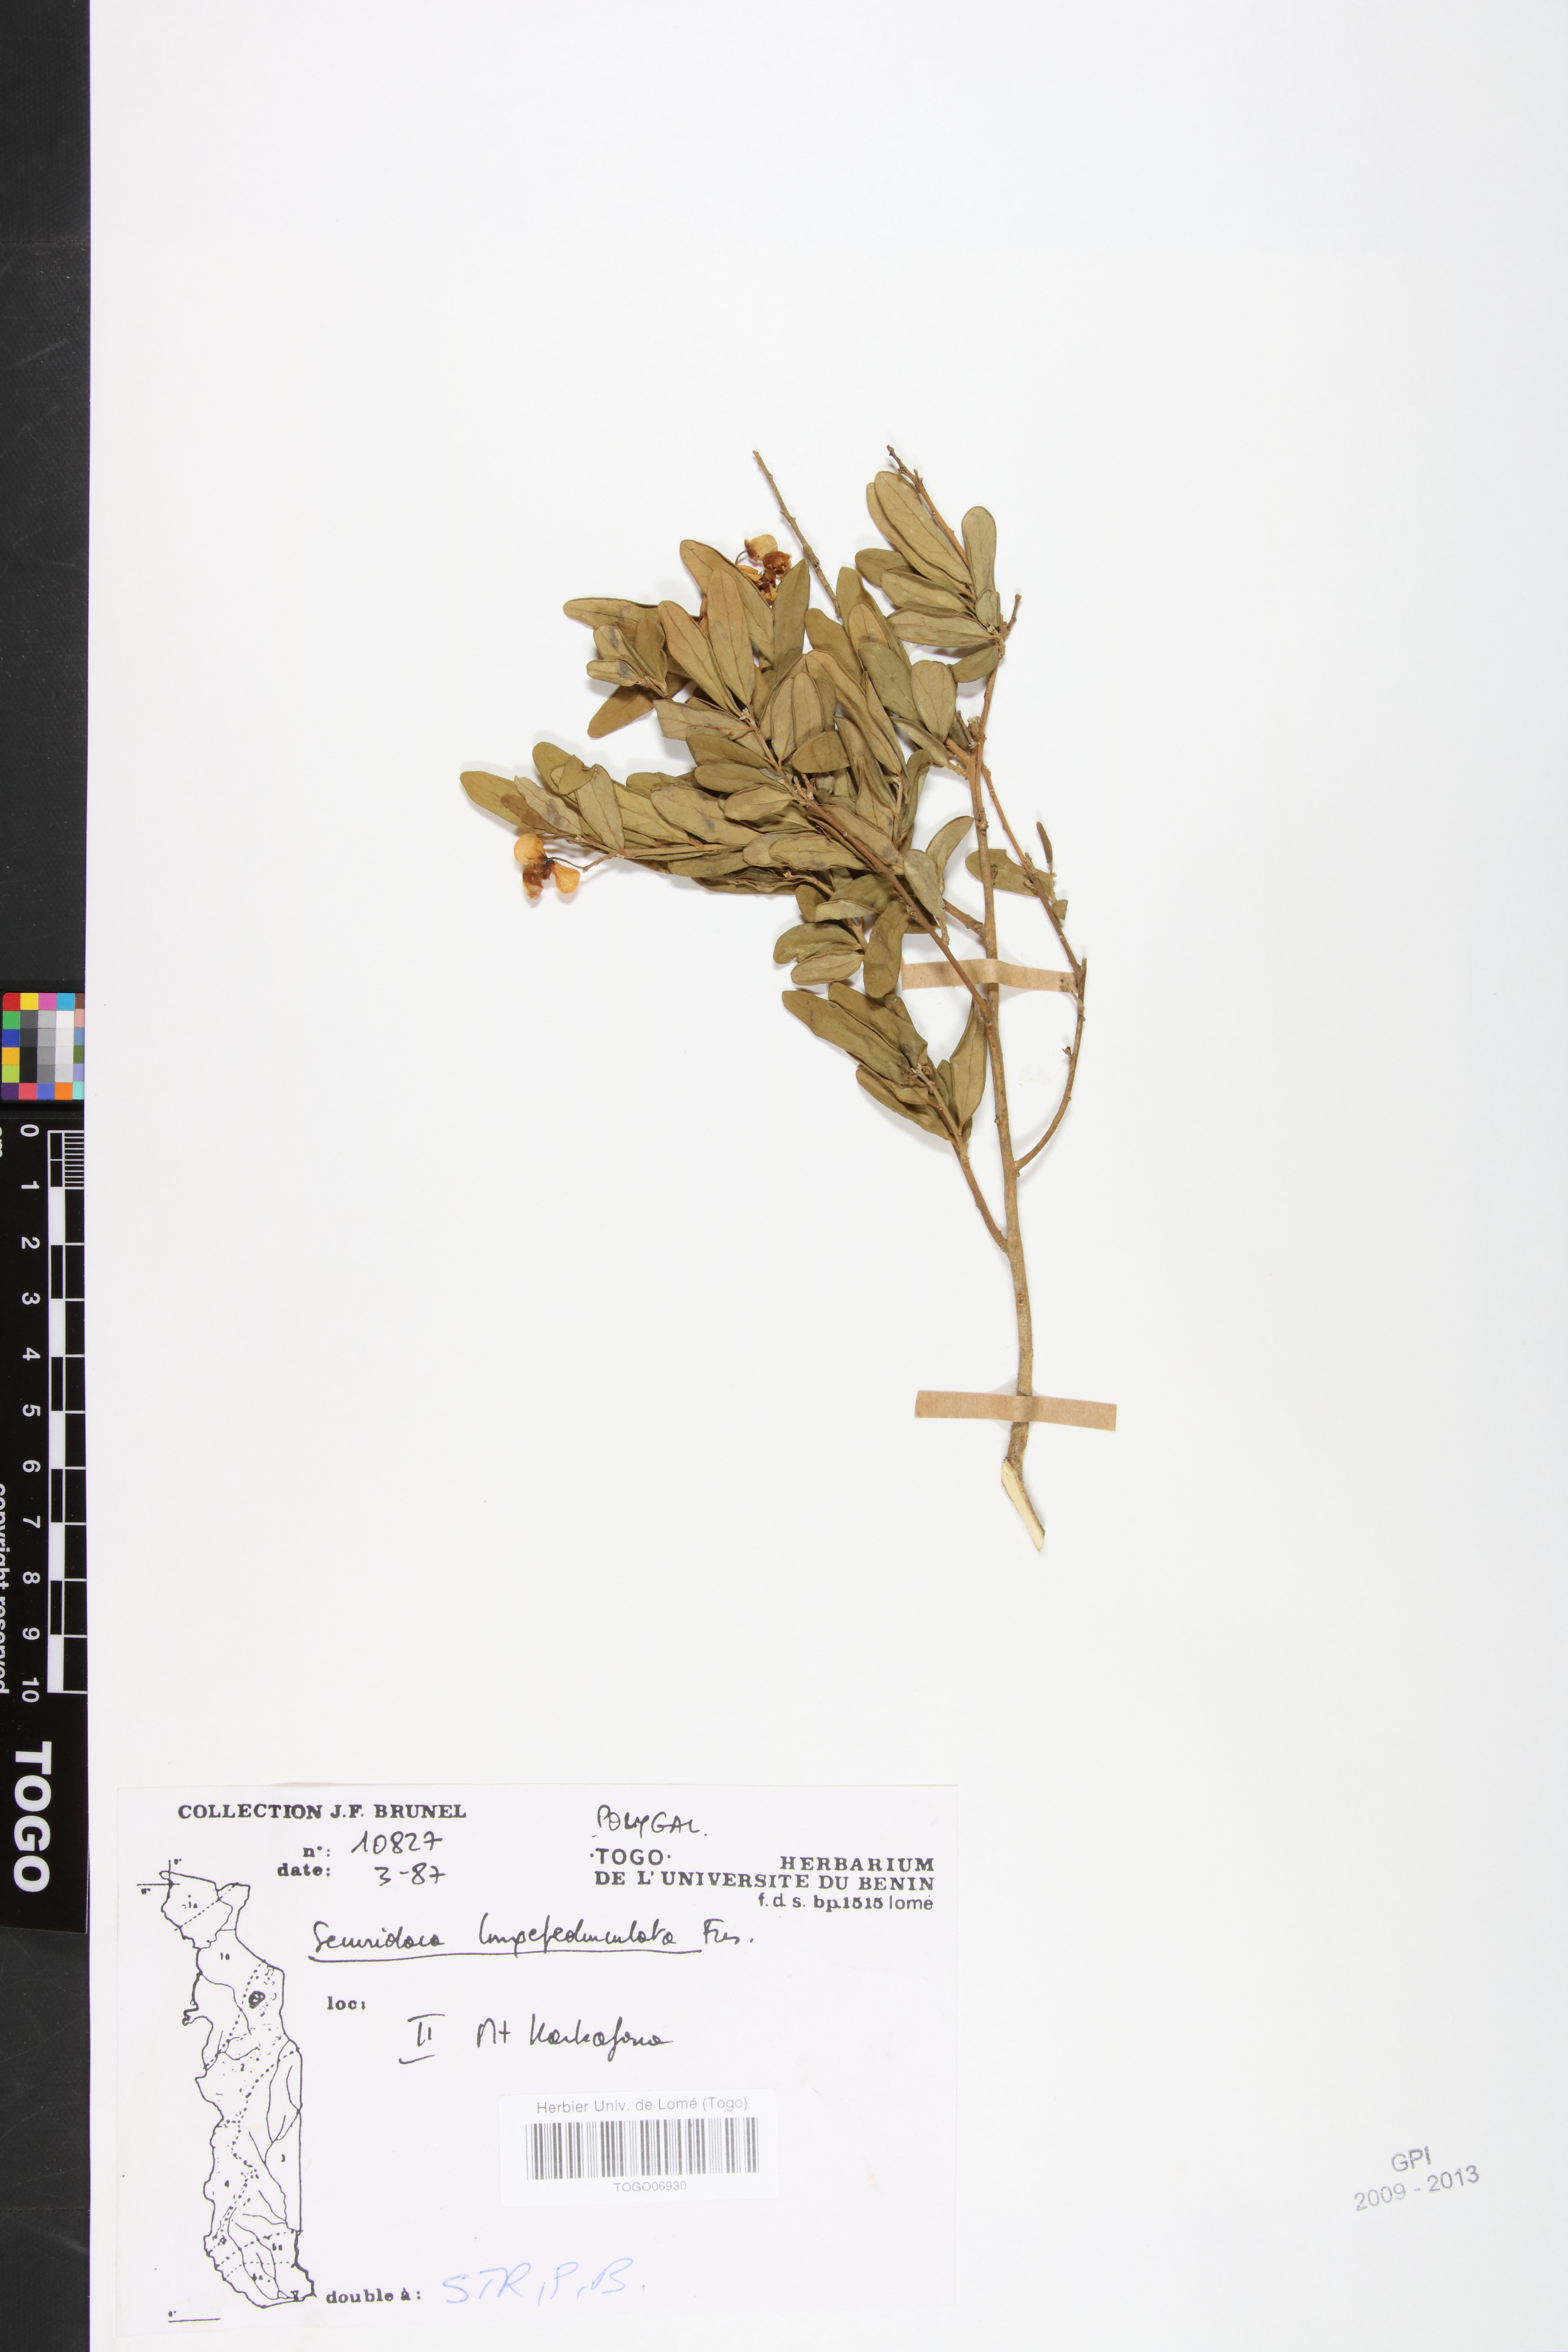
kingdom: Plantae
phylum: Tracheophyta
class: Magnoliopsida
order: Fabales
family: Polygalaceae
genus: Securidaca
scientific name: Securidaca longepedunculata
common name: Violet tree
